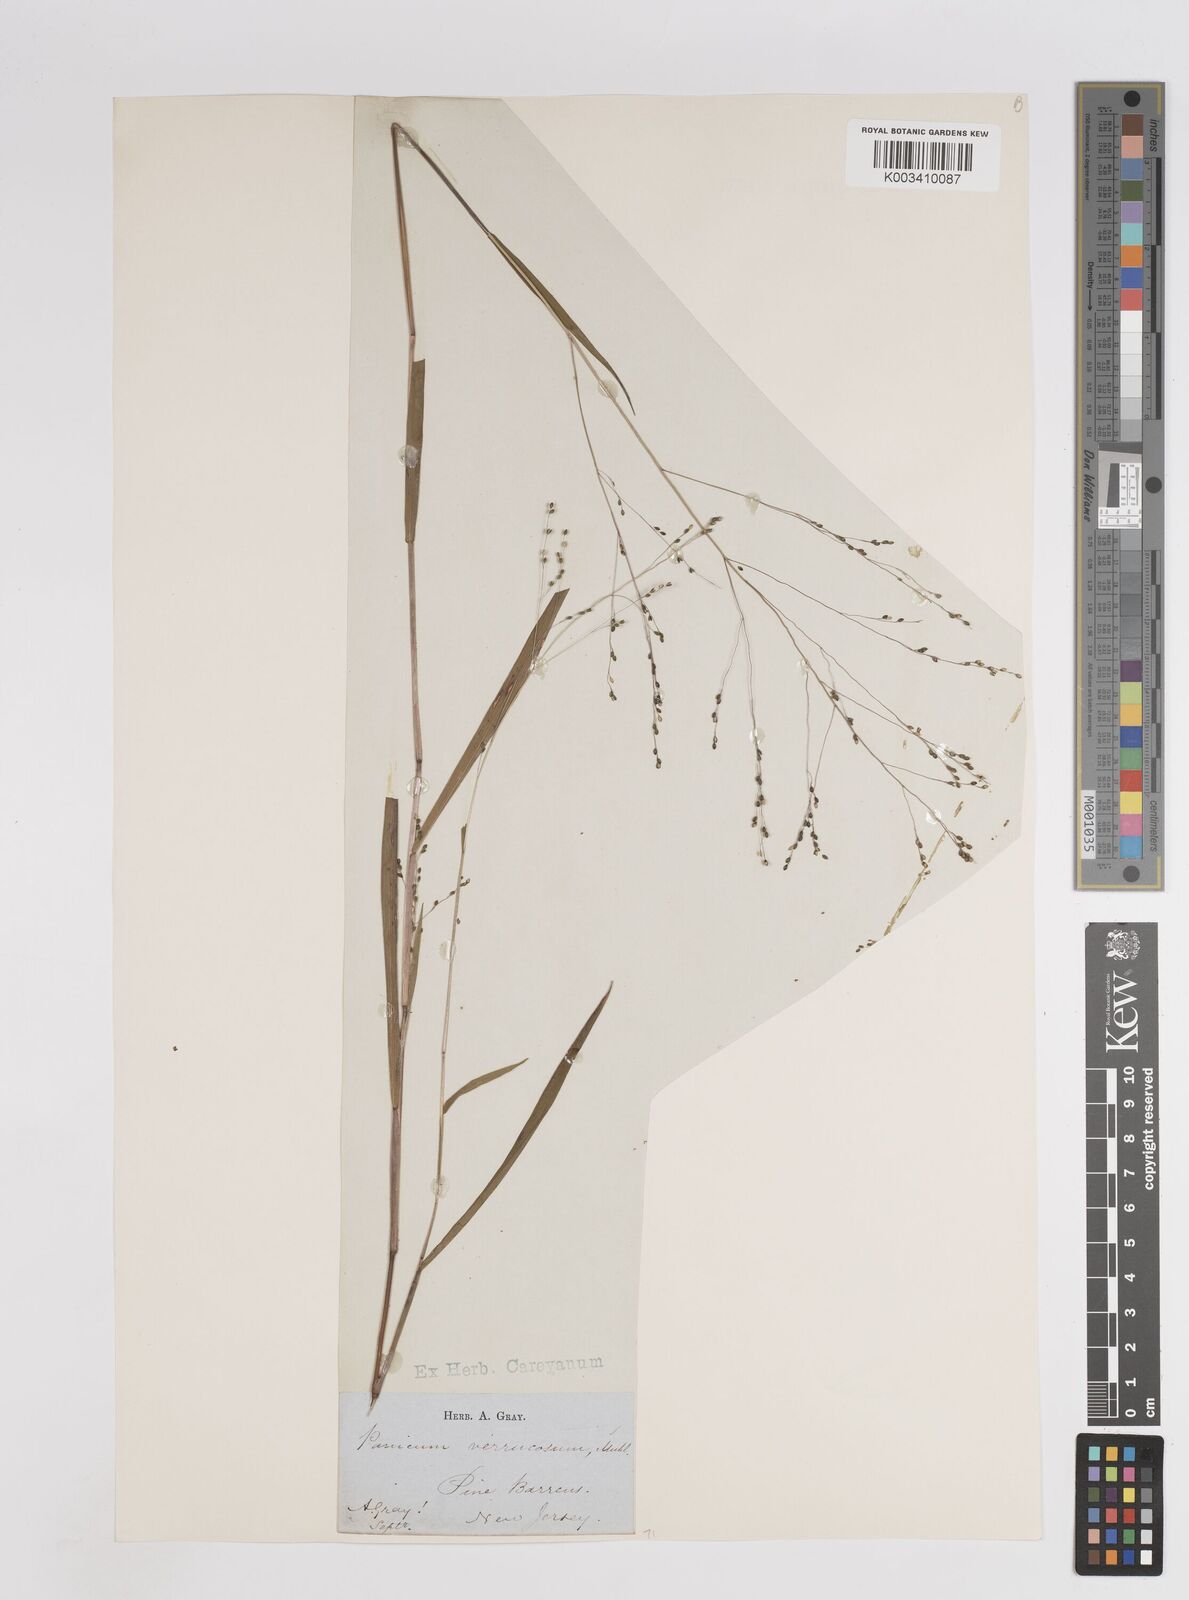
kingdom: Plantae
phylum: Tracheophyta
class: Liliopsida
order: Poales
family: Poaceae
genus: Kellochloa
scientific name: Kellochloa verrucosa
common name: Warty panic grass
